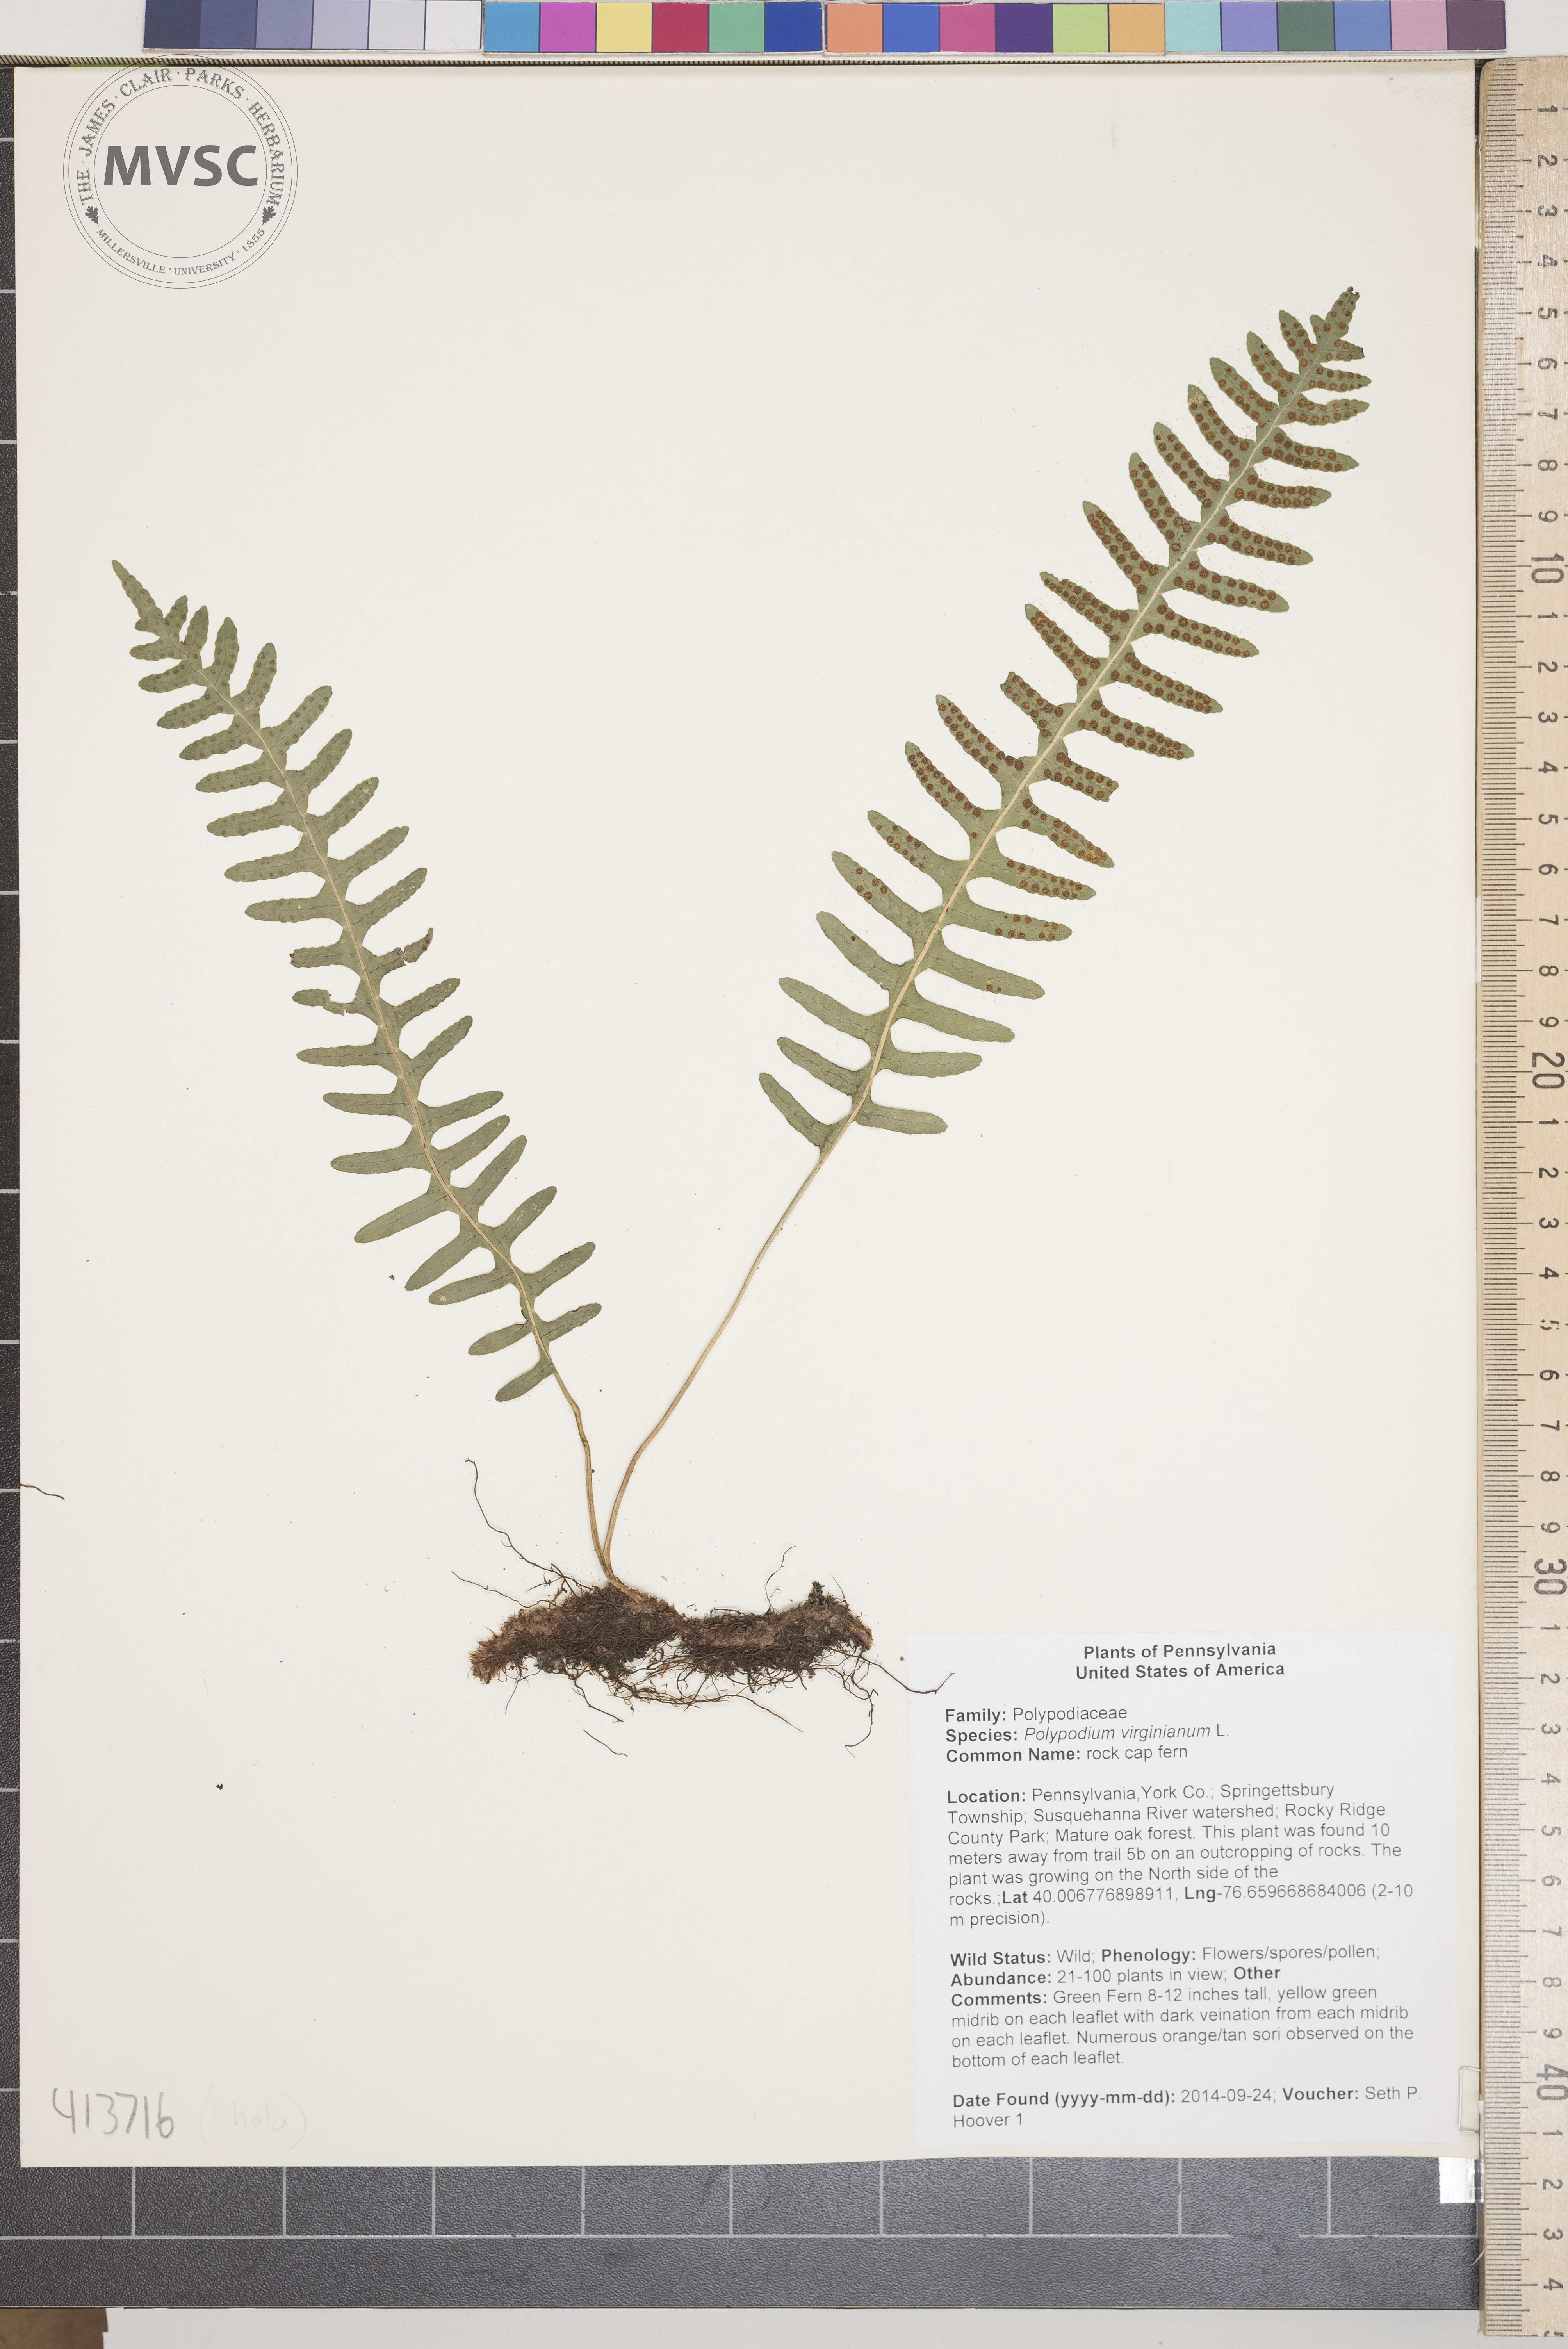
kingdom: Plantae
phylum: Tracheophyta
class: Polypodiopsida
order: Polypodiales
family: Polypodiaceae
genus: Polypodium
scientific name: Polypodium virginianum
